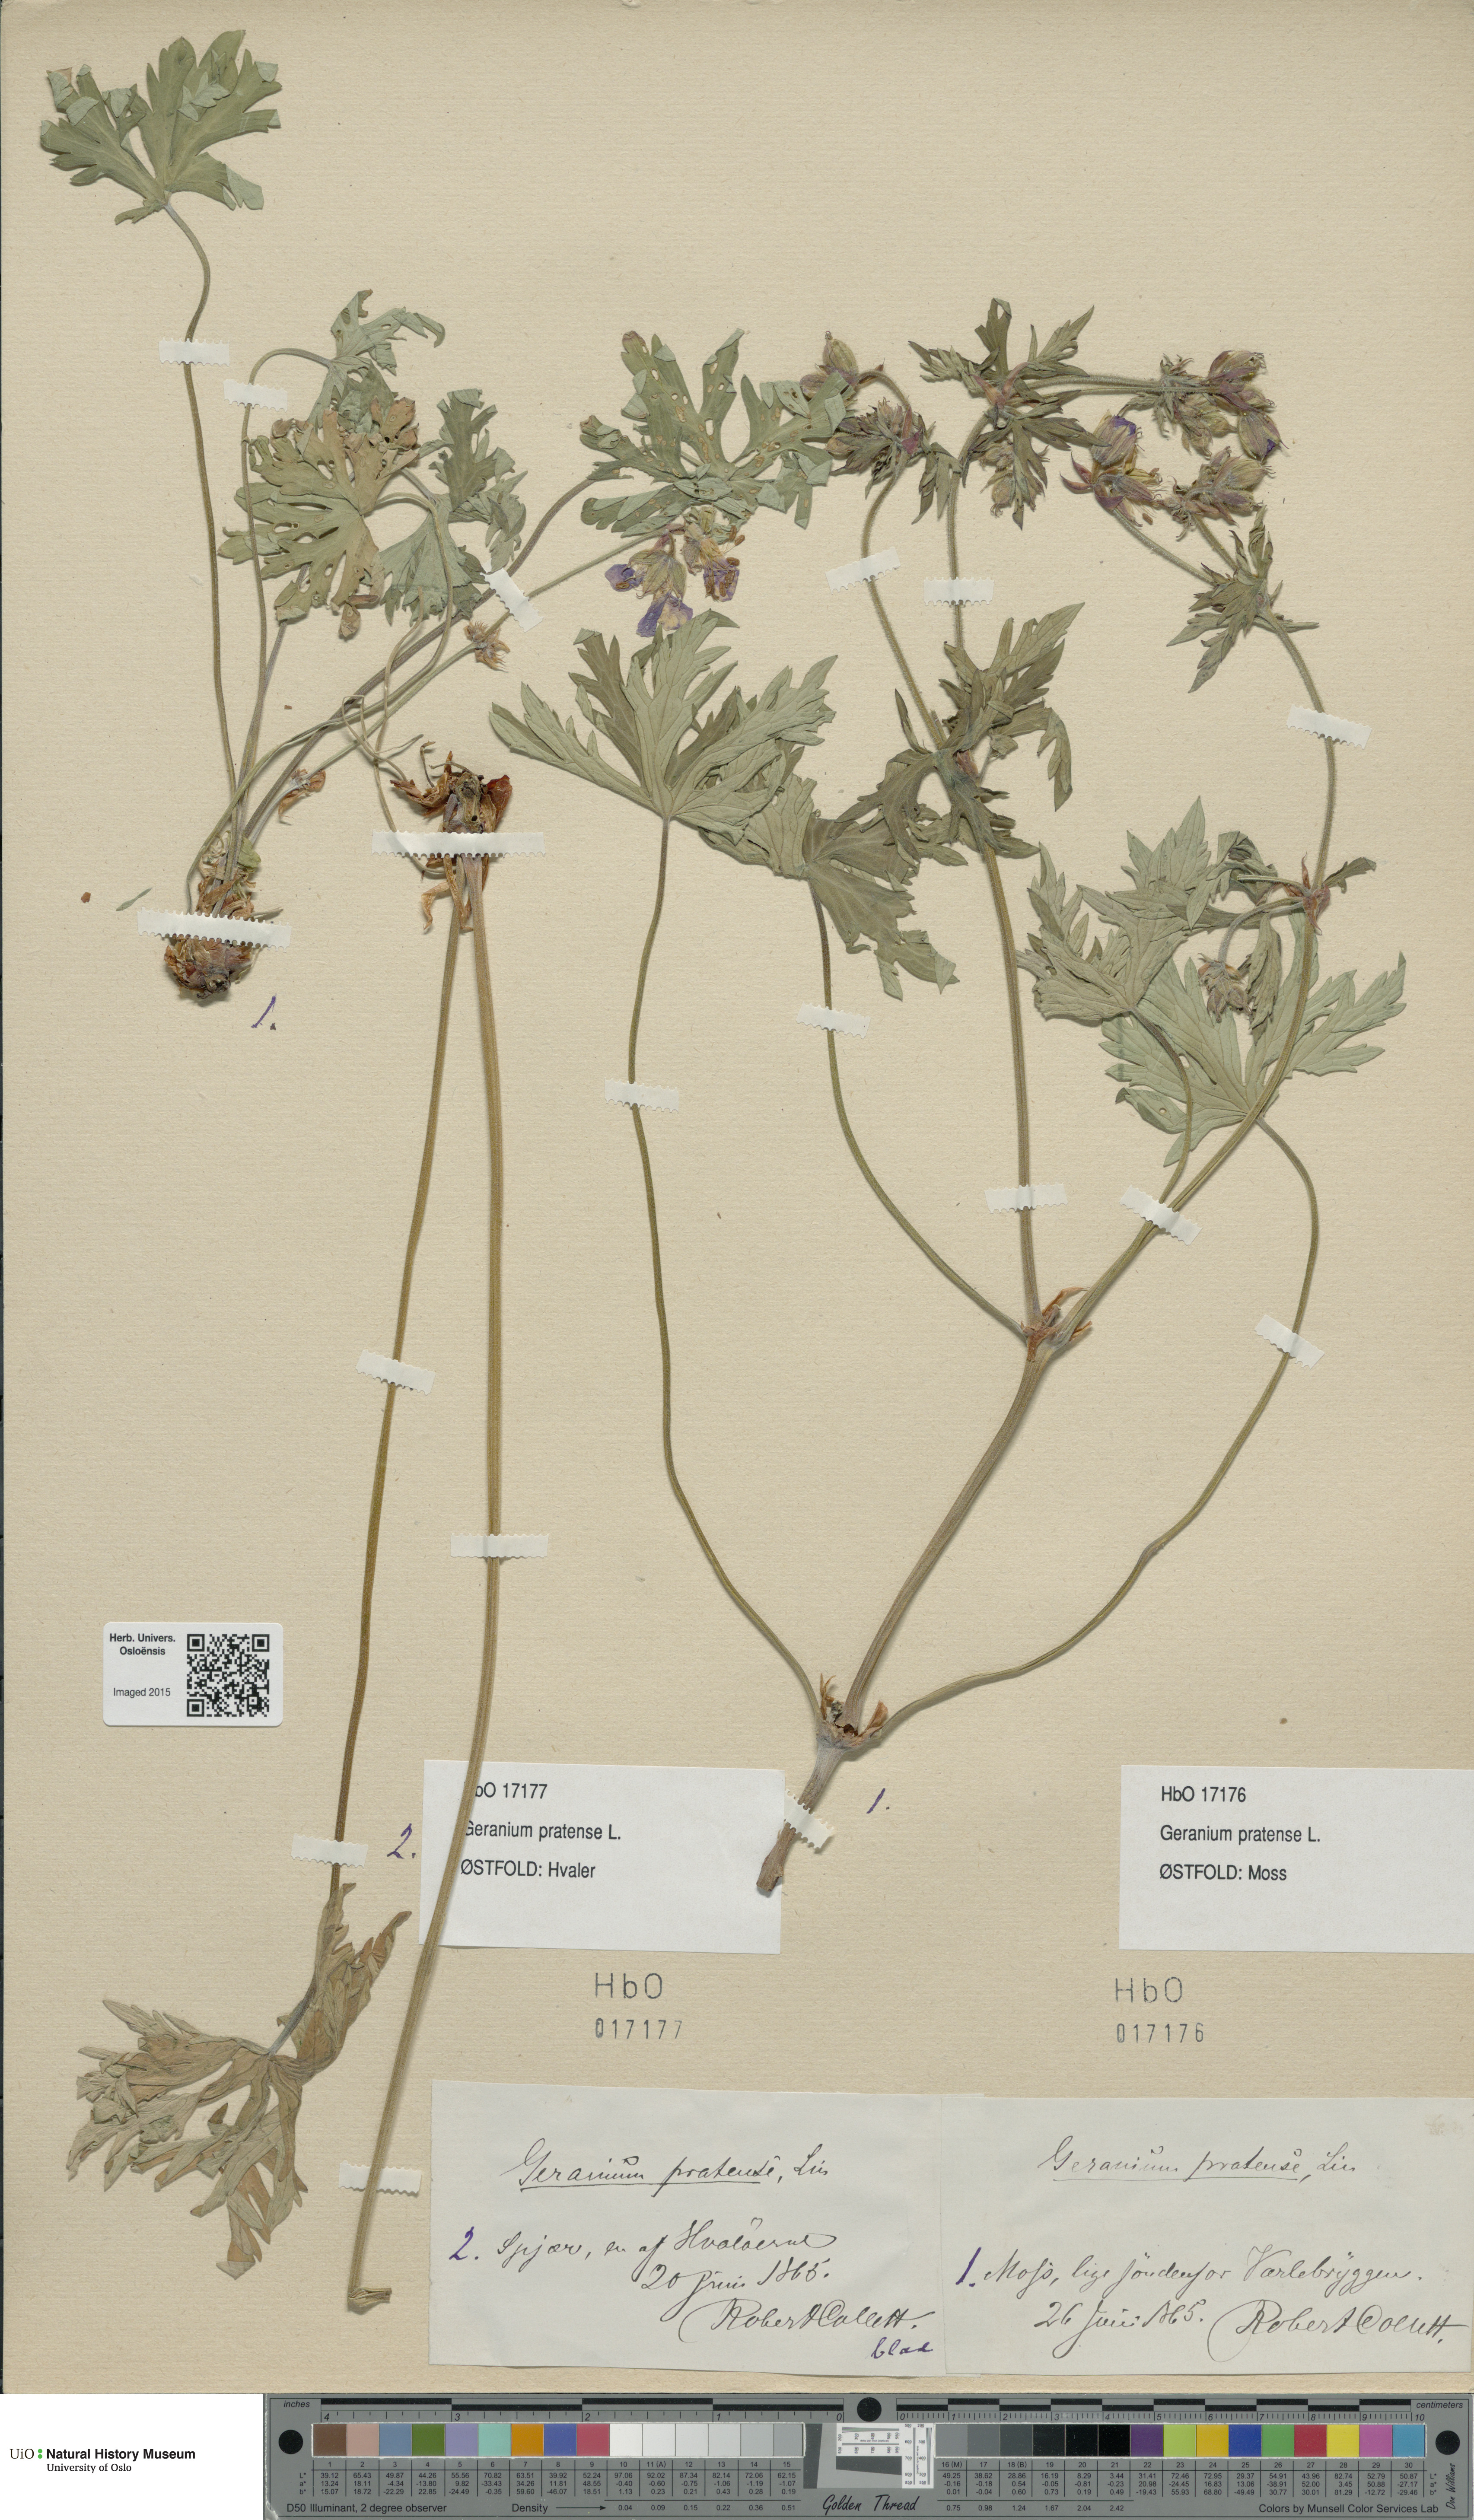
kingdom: Plantae
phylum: Tracheophyta
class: Magnoliopsida
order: Geraniales
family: Geraniaceae
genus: Geranium
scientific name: Geranium pratense
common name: Meadow crane's-bill
